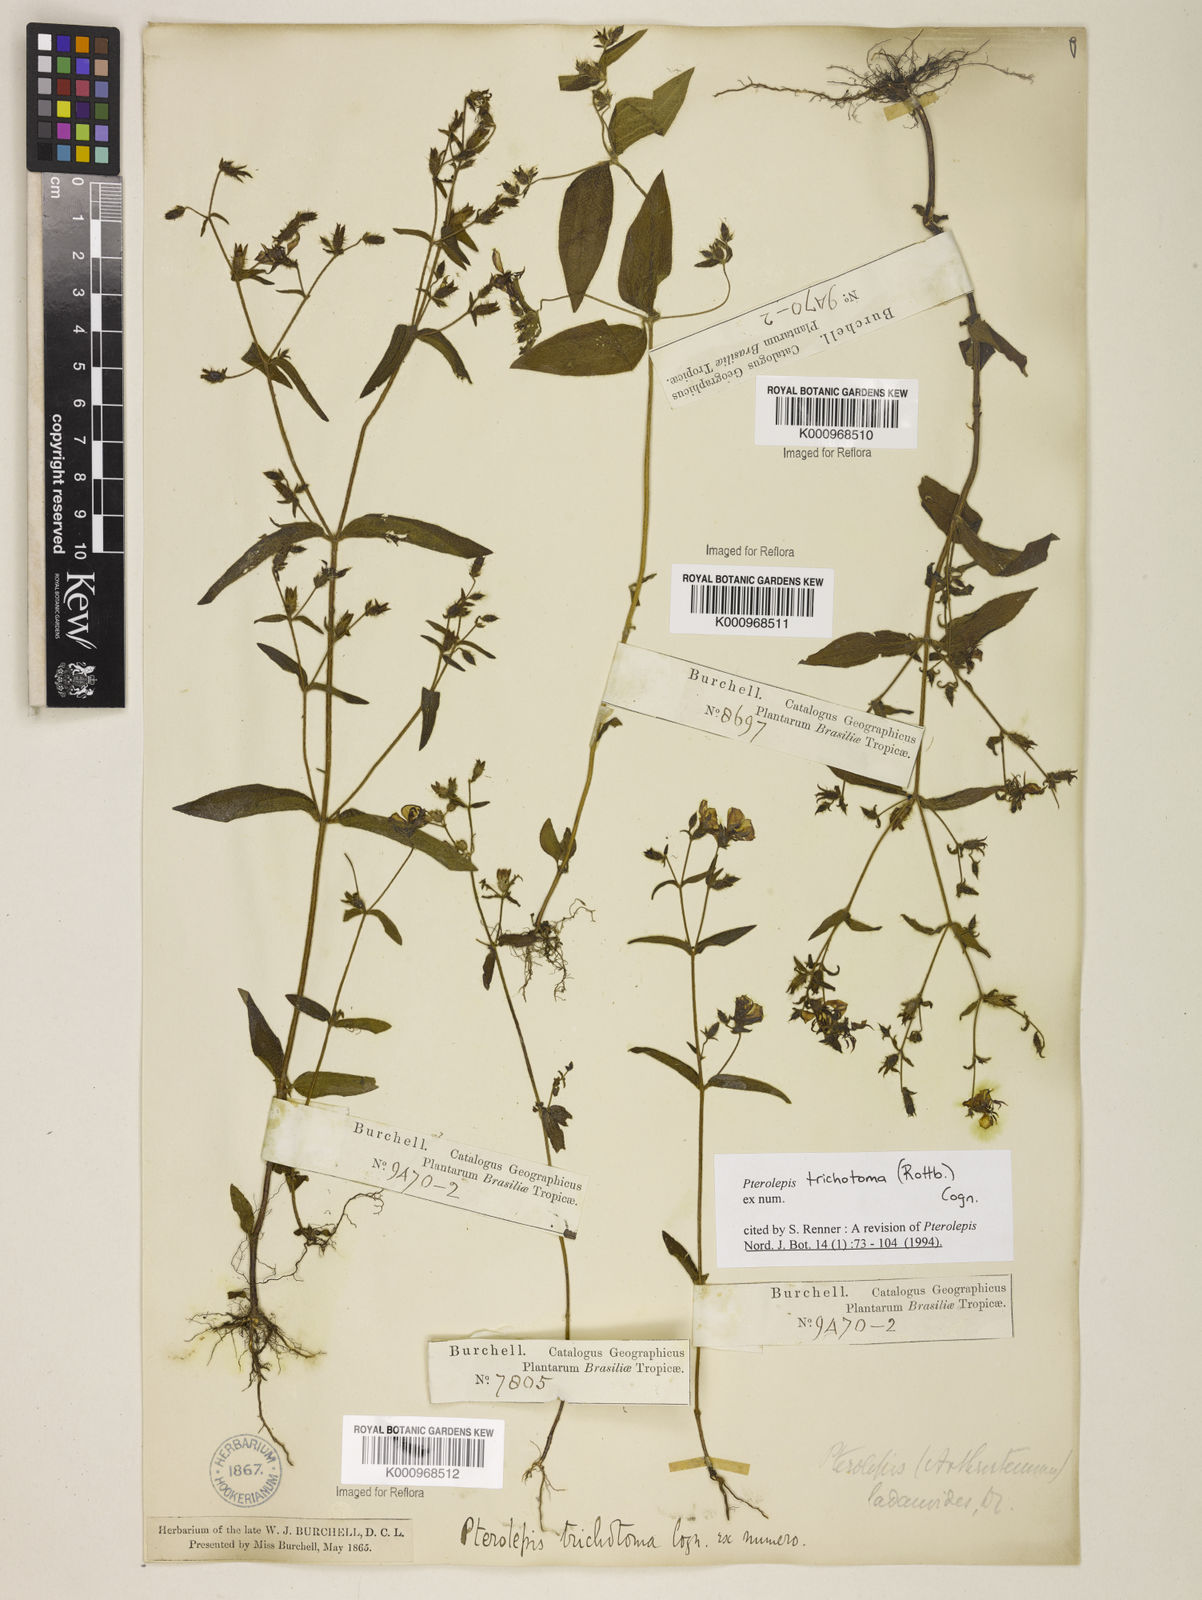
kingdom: Plantae
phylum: Tracheophyta
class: Magnoliopsida
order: Myrtales
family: Melastomataceae
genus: Pterolepis
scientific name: Pterolepis trichotoma
